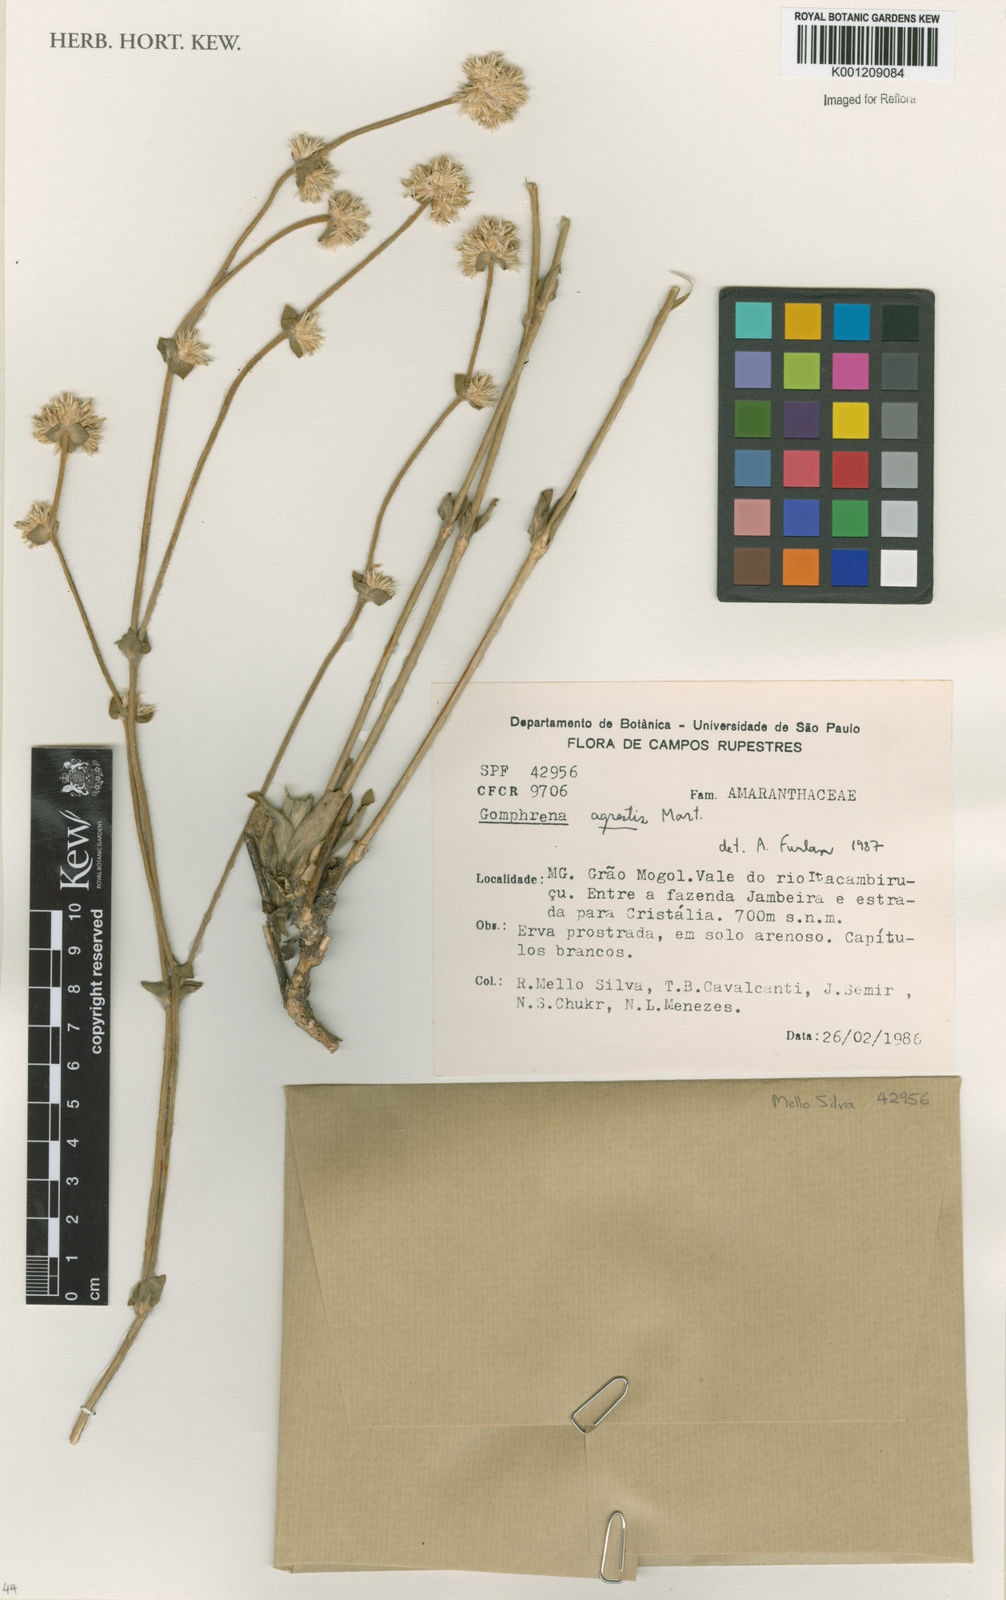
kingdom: Plantae
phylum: Tracheophyta
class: Magnoliopsida
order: Caryophyllales
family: Amaranthaceae
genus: Gomphrena
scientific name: Gomphrena agrestis
